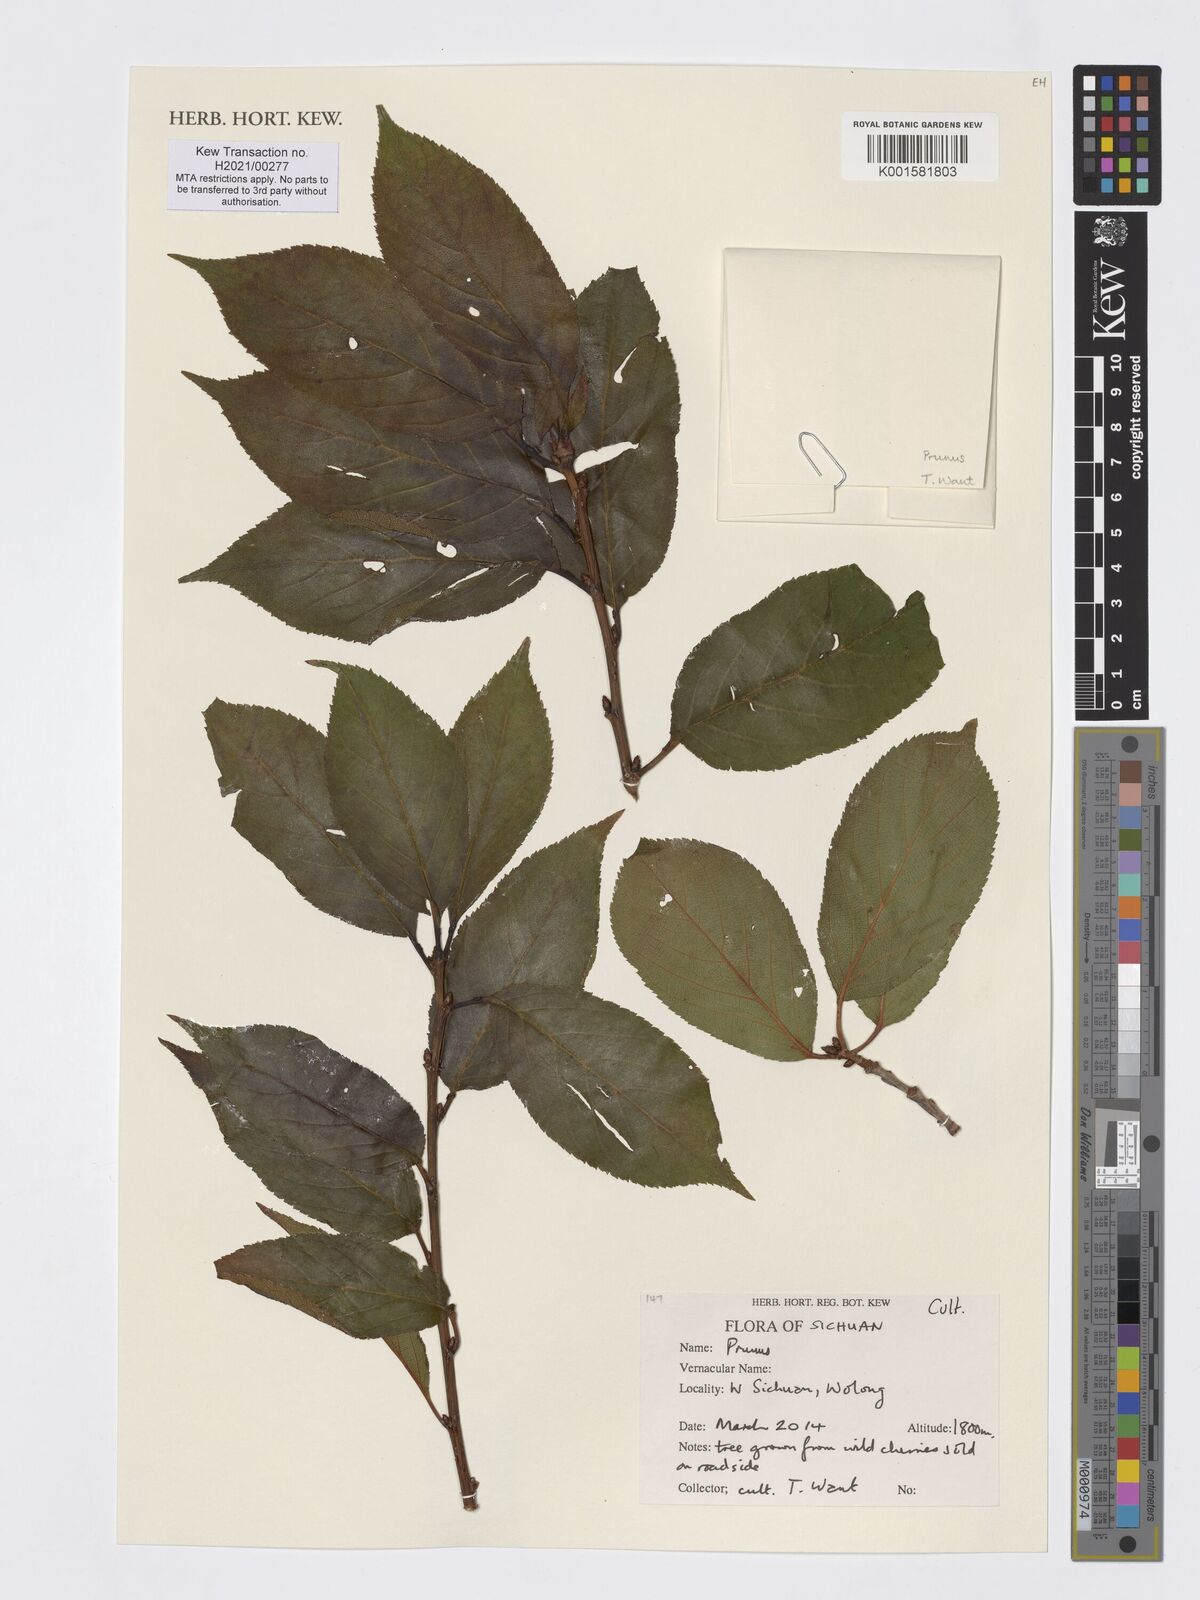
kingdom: Plantae
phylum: Tracheophyta
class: Magnoliopsida
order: Rosales
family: Rosaceae
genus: Prunus
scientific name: Prunus
